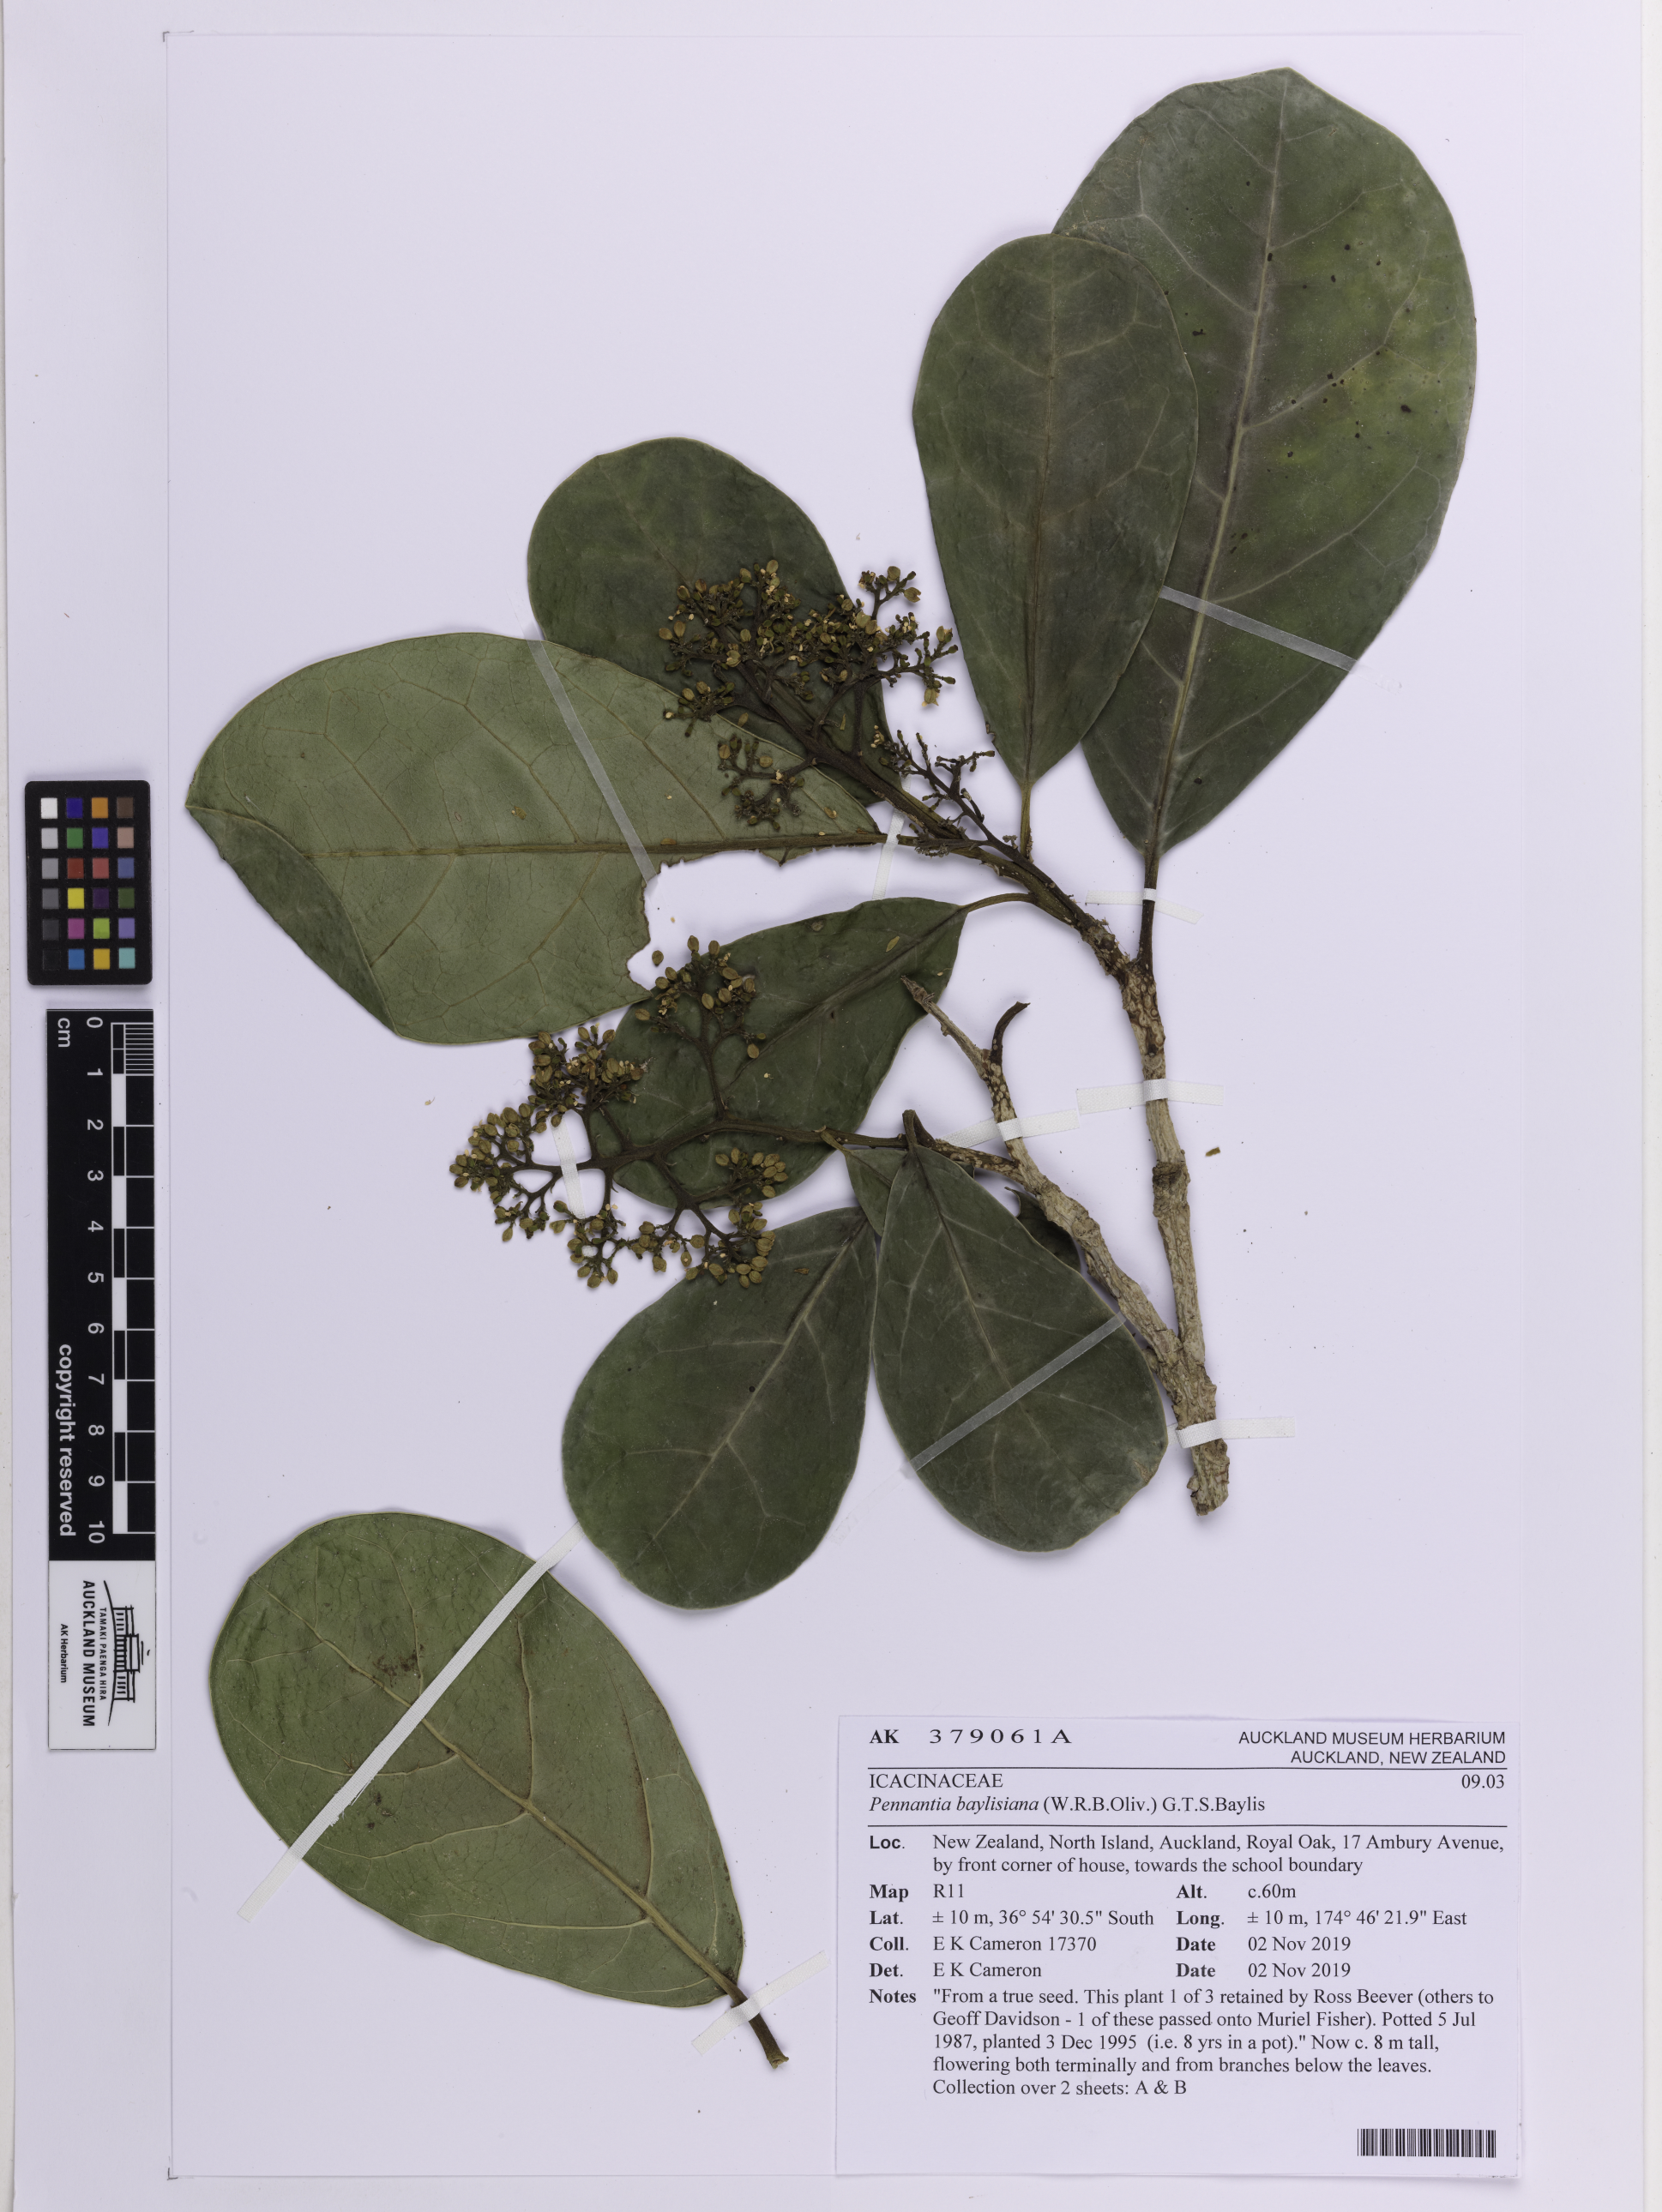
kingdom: Plantae
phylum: Tracheophyta
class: Magnoliopsida
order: Apiales
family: Pennantiaceae
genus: Pennantia
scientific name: Pennantia baylisiana
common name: Three kings kaikomako
